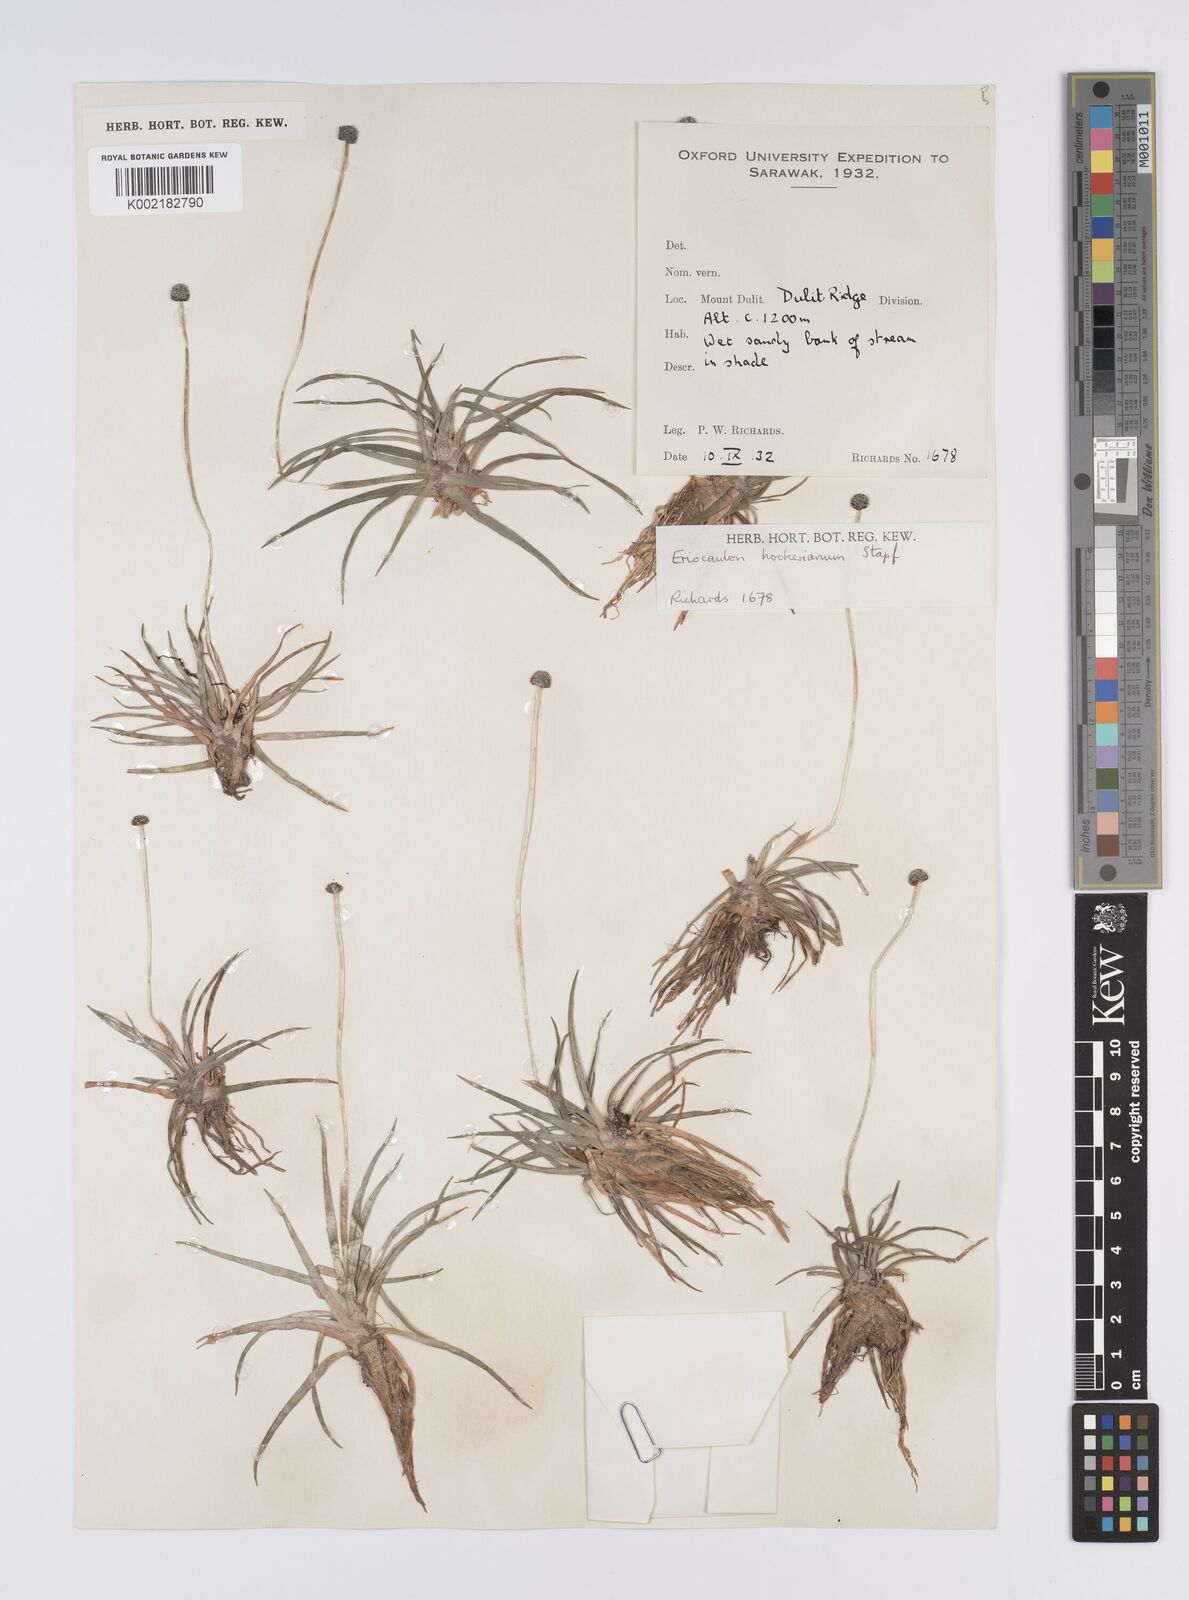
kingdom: Plantae
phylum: Tracheophyta
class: Liliopsida
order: Poales
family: Eriocaulaceae
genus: Eriocaulon
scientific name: Eriocaulon hookerianum
